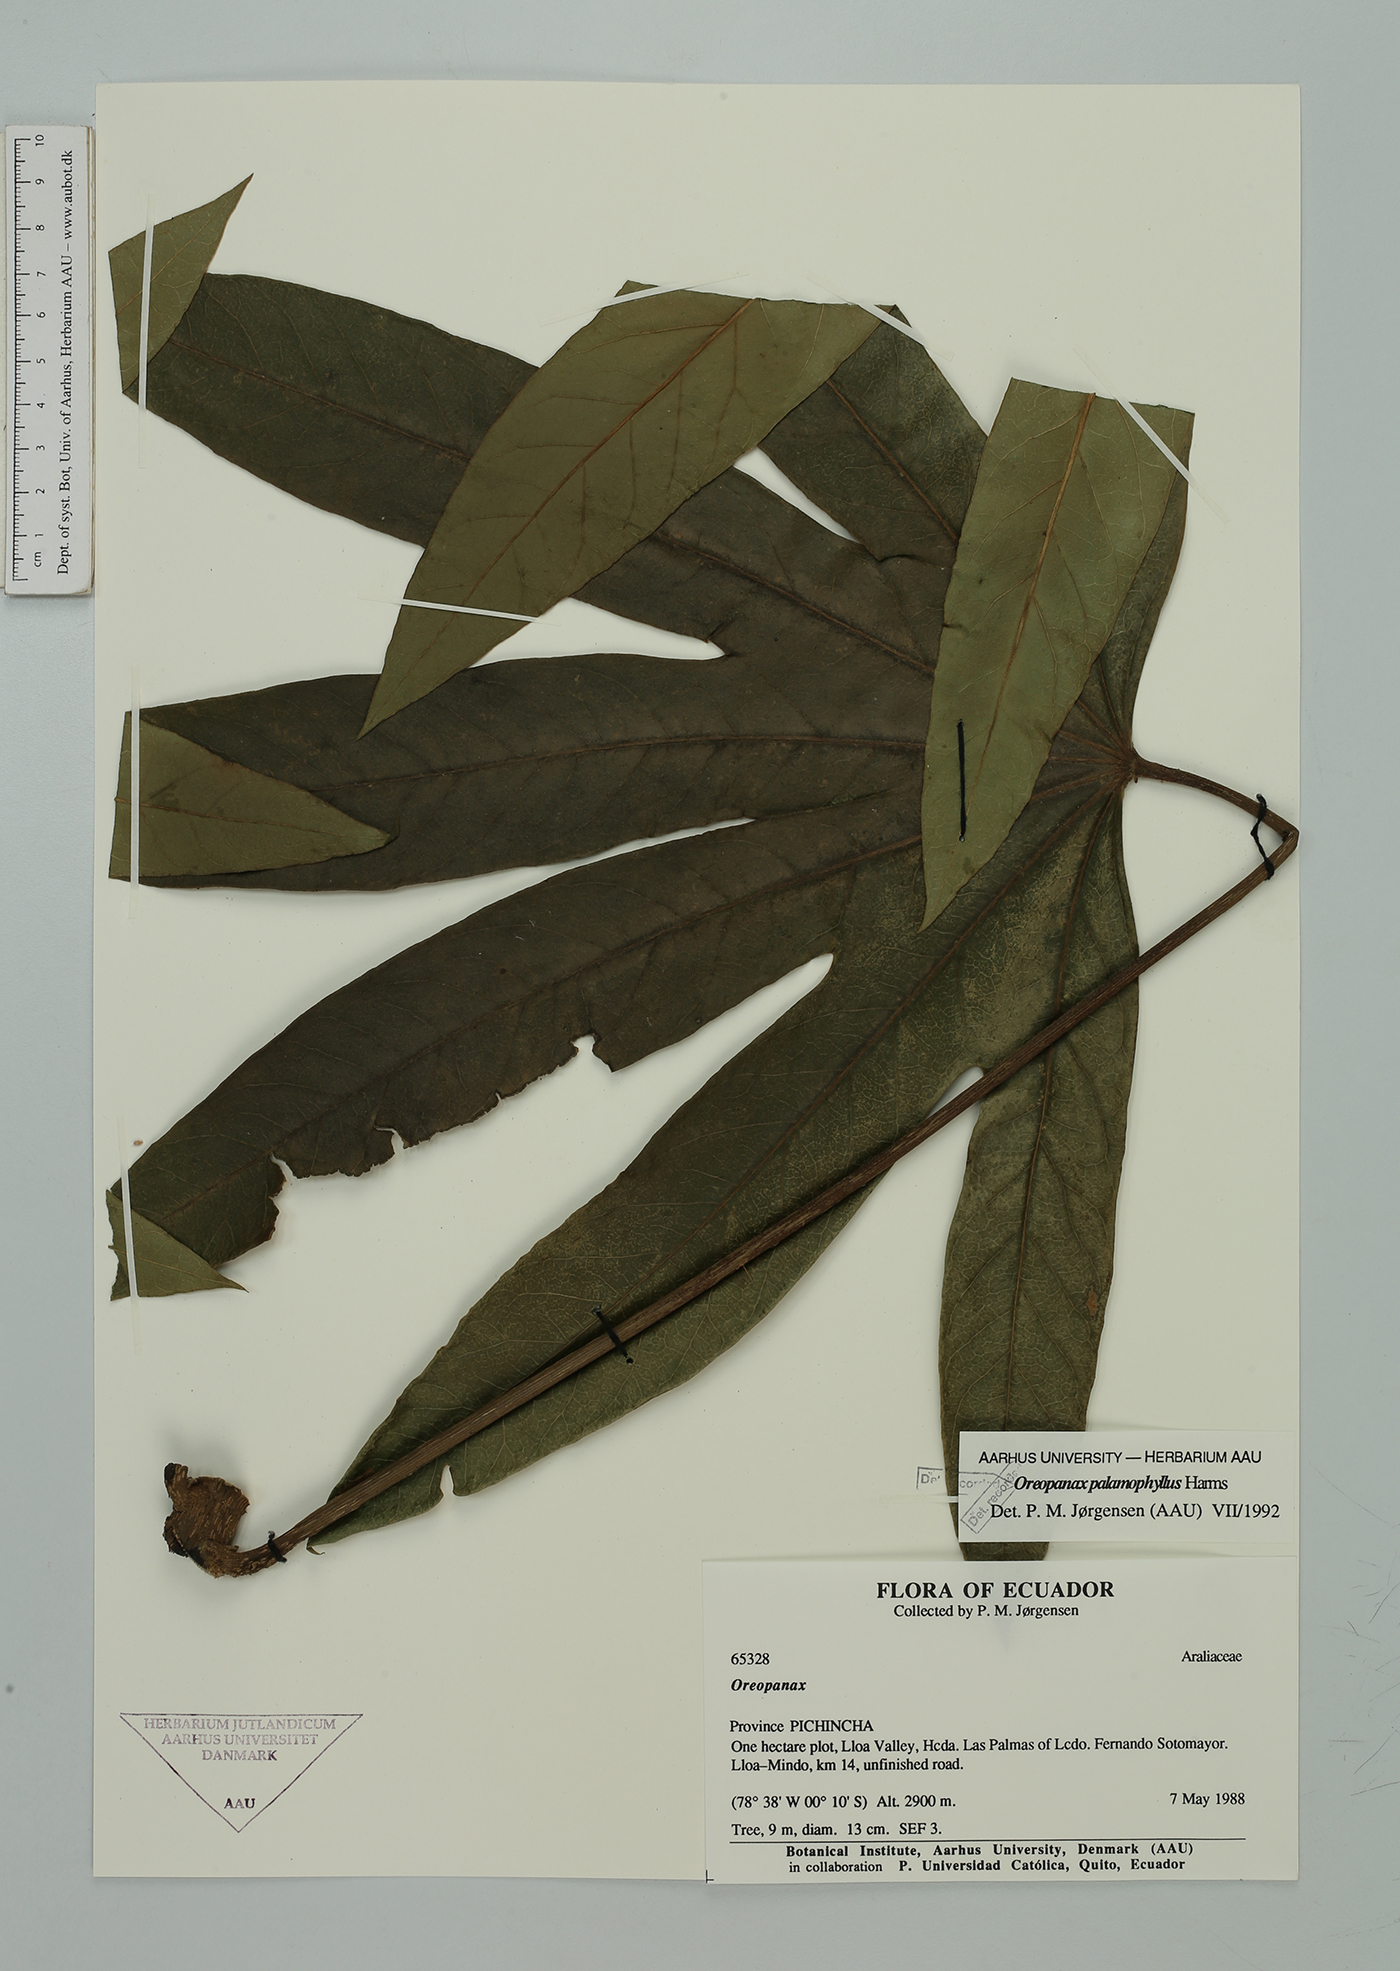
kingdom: Plantae
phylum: Tracheophyta
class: Magnoliopsida
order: Apiales
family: Araliaceae
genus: Oreopanax
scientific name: Oreopanax palamophyllus
